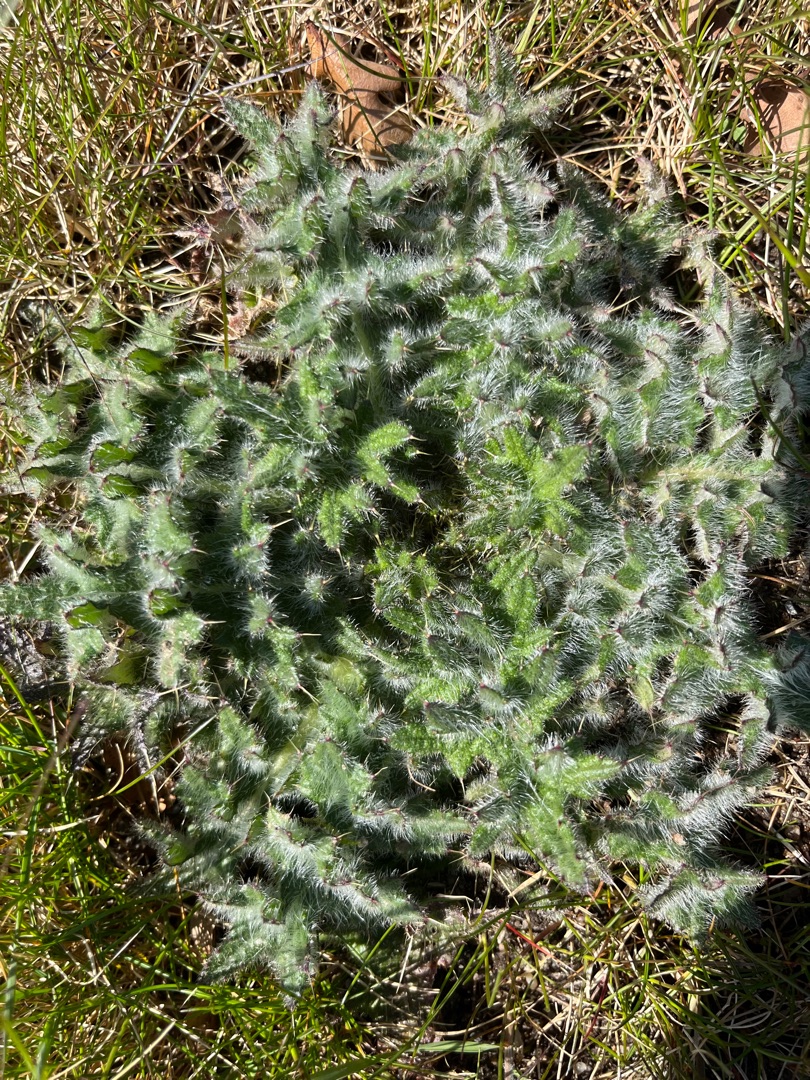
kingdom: Plantae
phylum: Tracheophyta
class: Magnoliopsida
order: Asterales
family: Asteraceae
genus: Cirsium
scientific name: Cirsium vulgare
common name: Horse-tidsel
